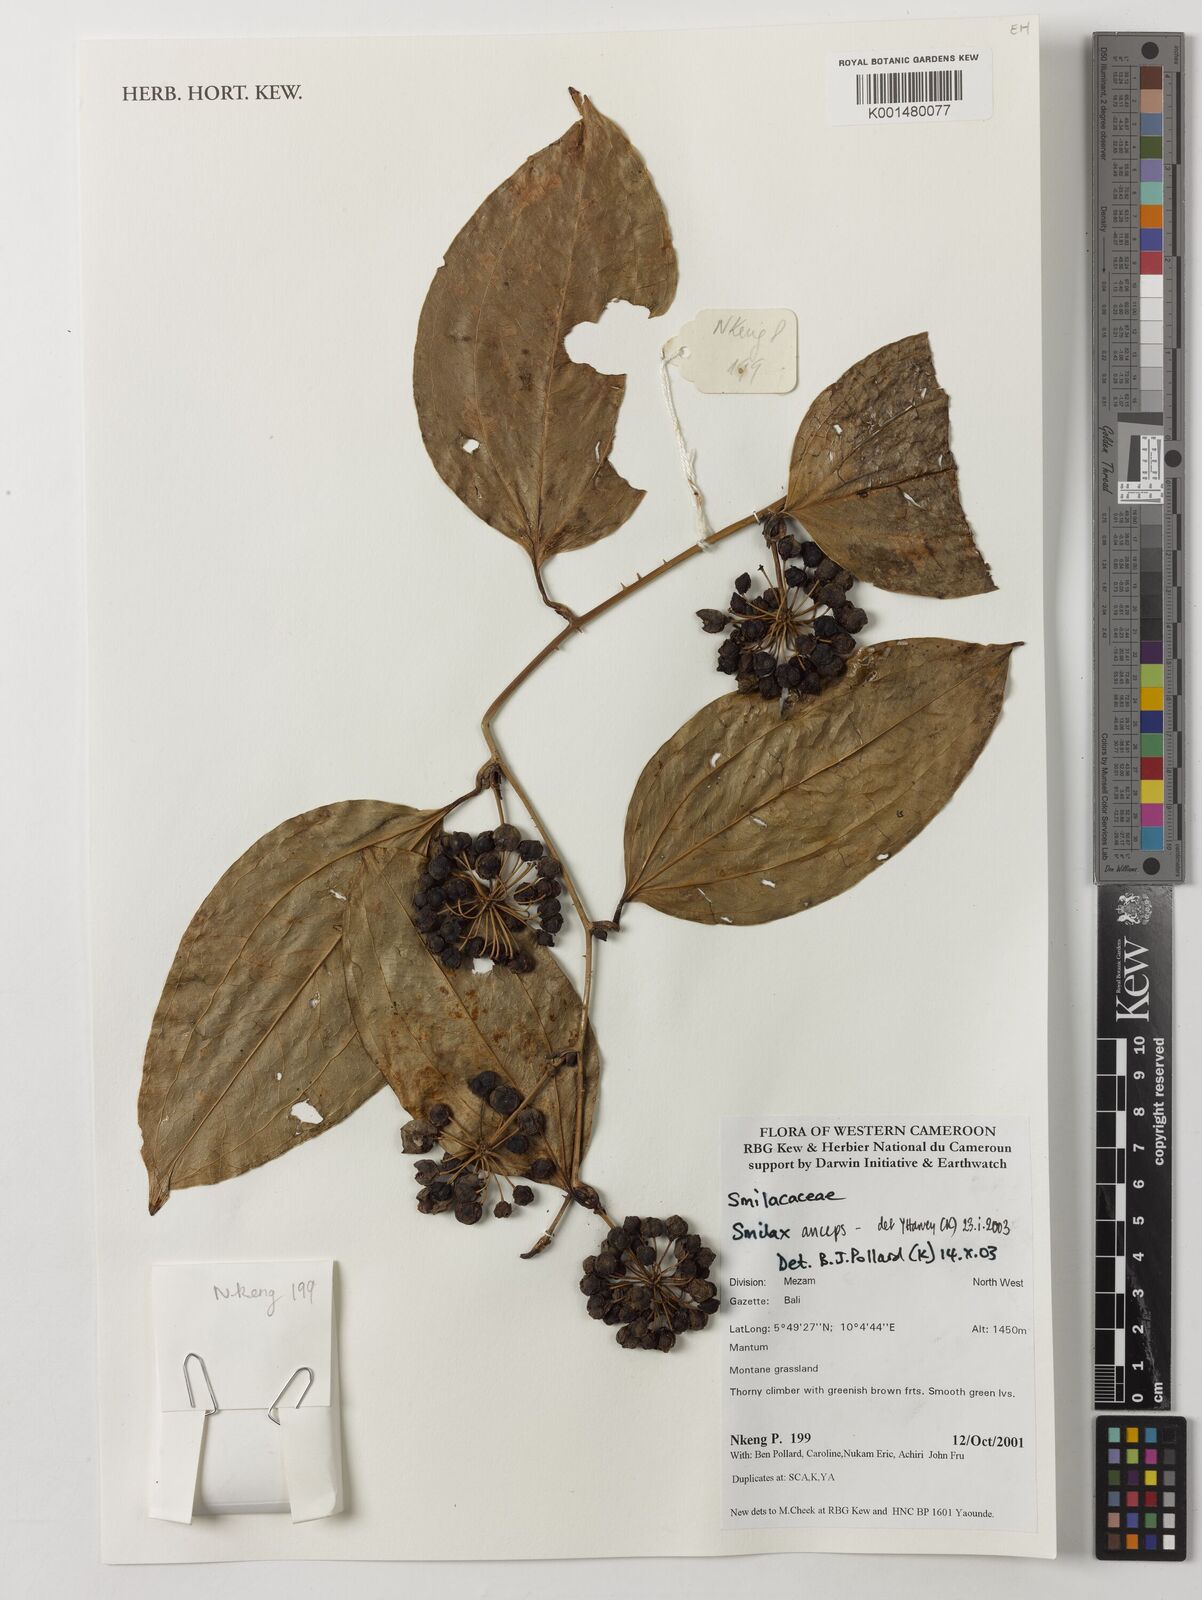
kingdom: Plantae
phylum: Tracheophyta
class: Liliopsida
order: Liliales
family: Smilacaceae
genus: Smilax
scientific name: Smilax anceps
